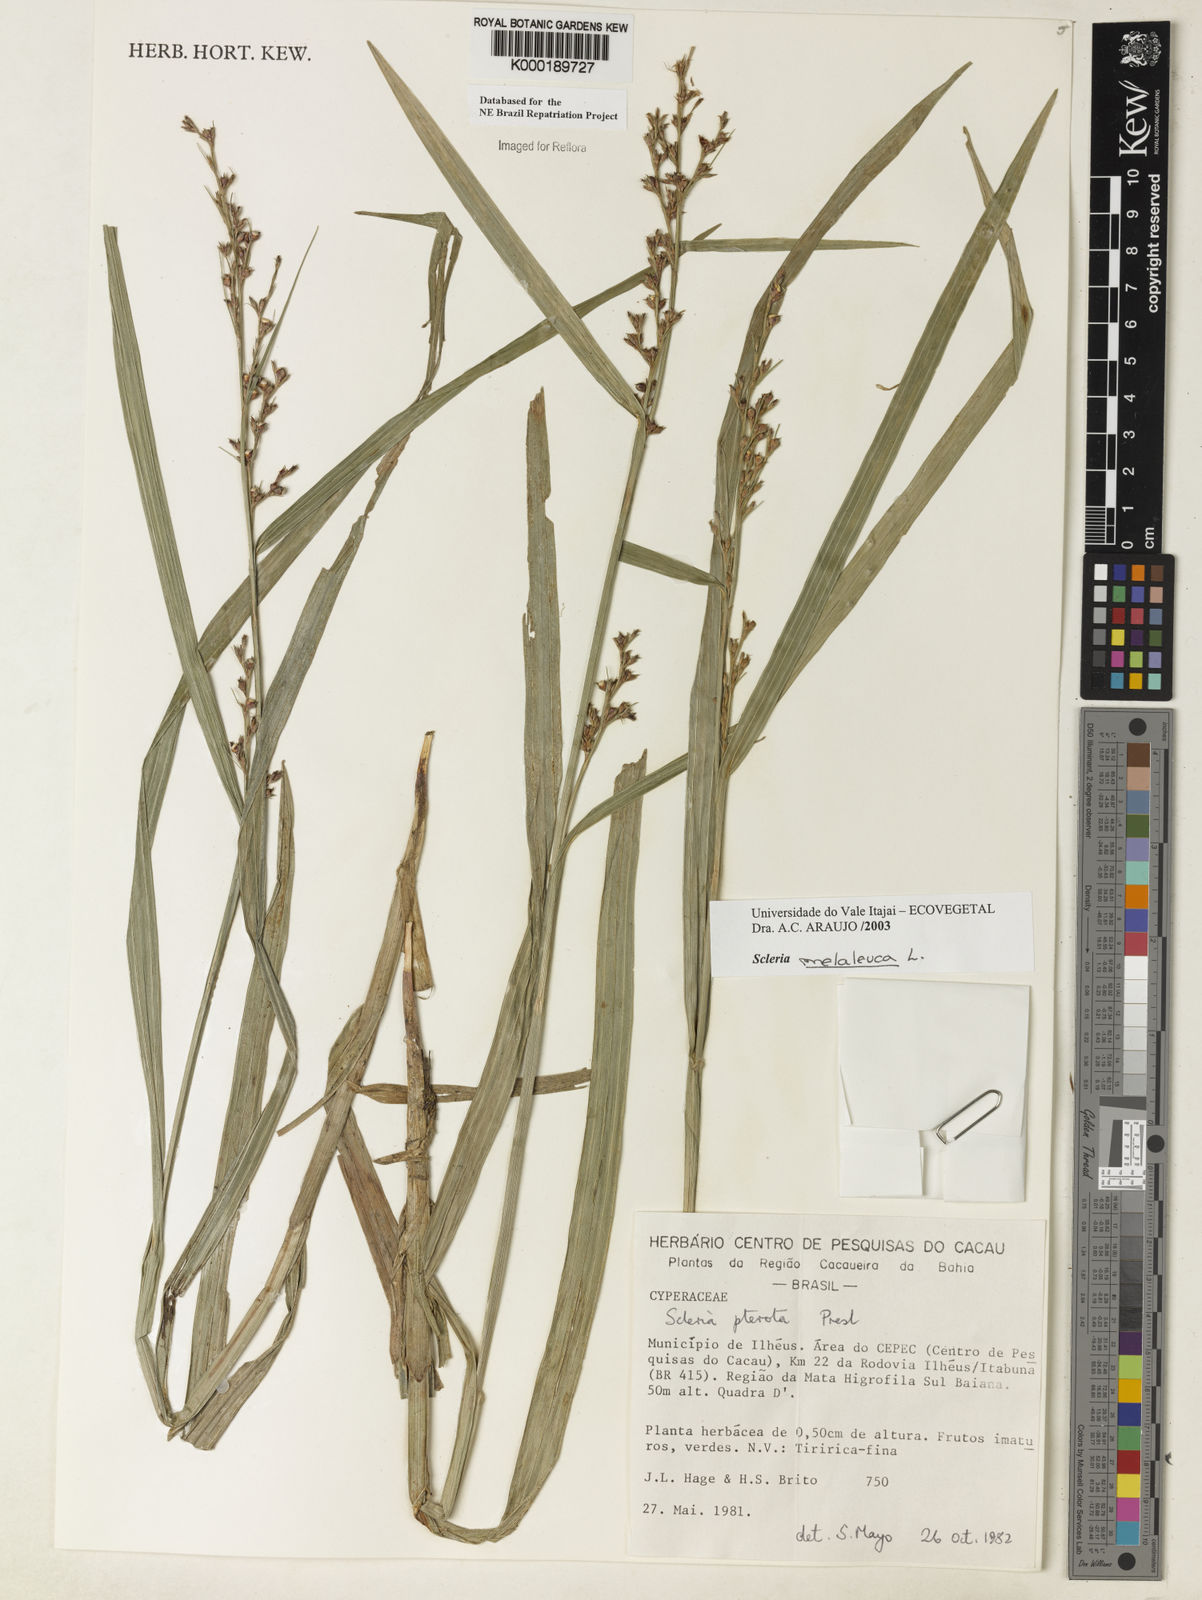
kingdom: Plantae
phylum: Tracheophyta
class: Liliopsida
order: Poales
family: Cyperaceae
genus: Scleria
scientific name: Scleria gaertneri
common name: Cortadera blanca
